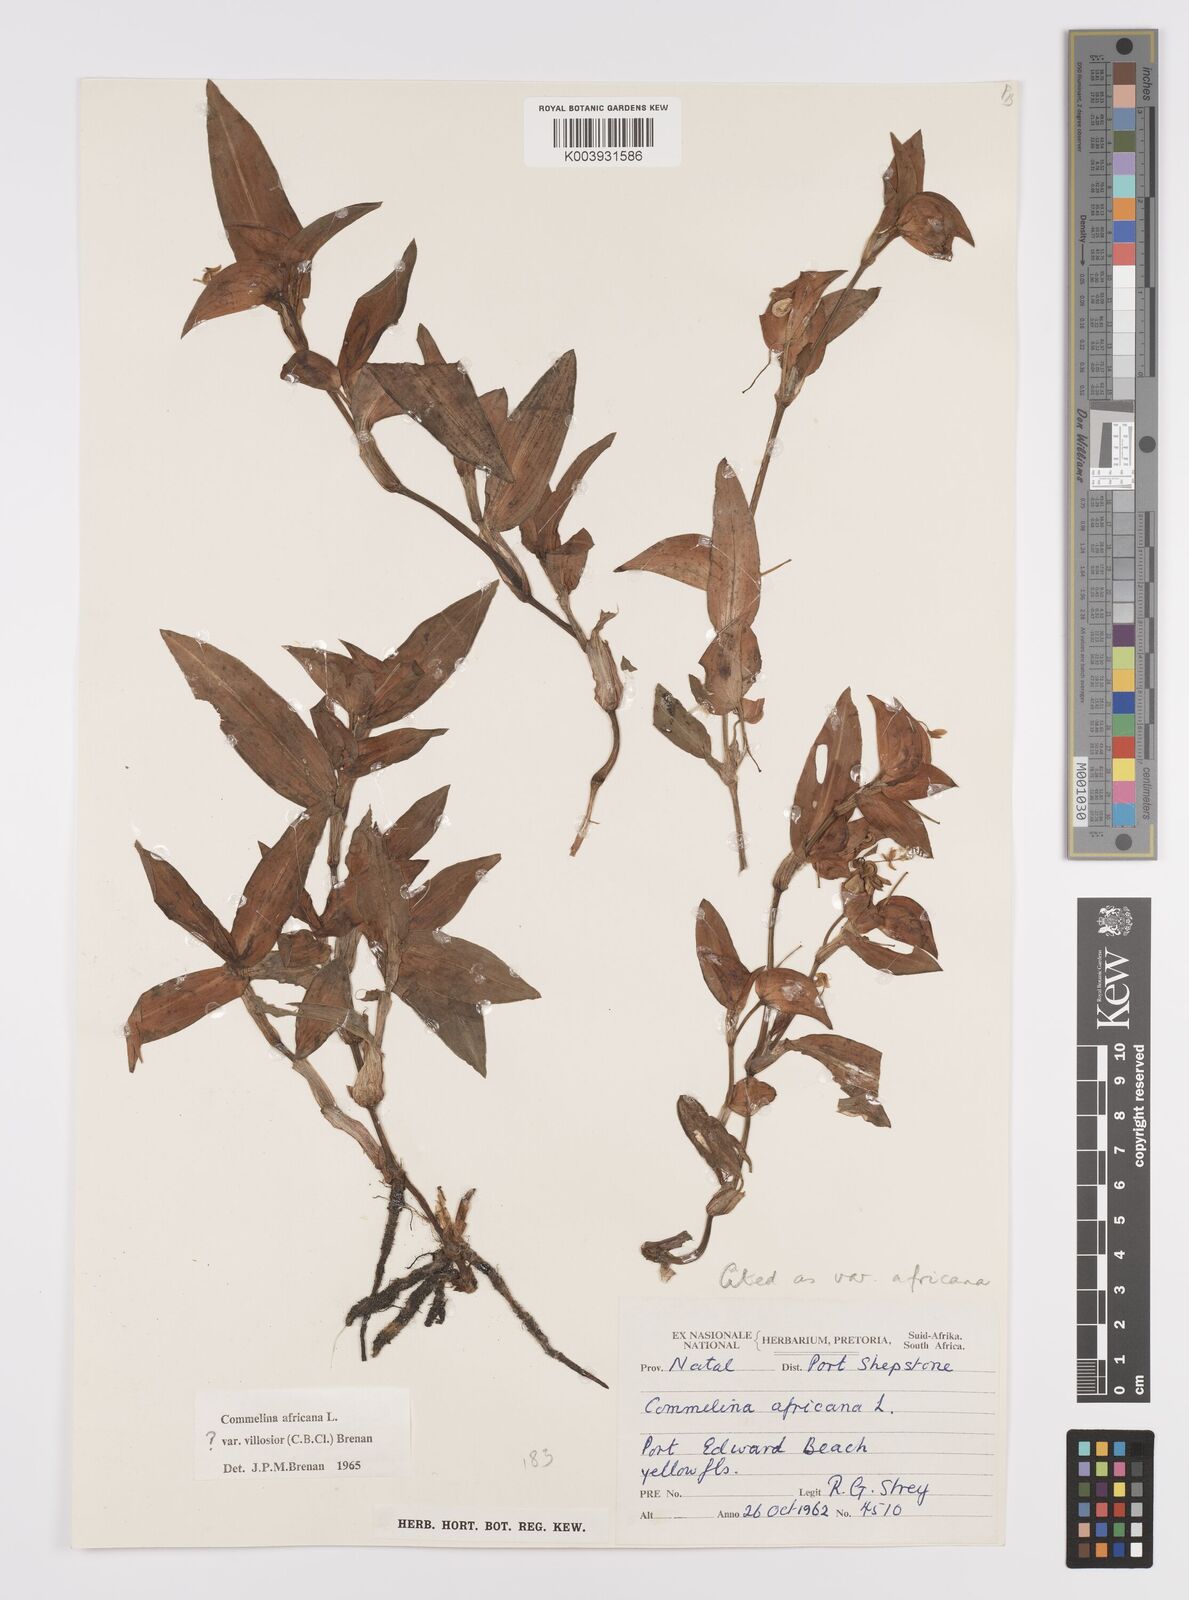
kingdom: Plantae
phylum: Tracheophyta
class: Liliopsida
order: Commelinales
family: Commelinaceae
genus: Commelina
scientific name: Commelina africana
